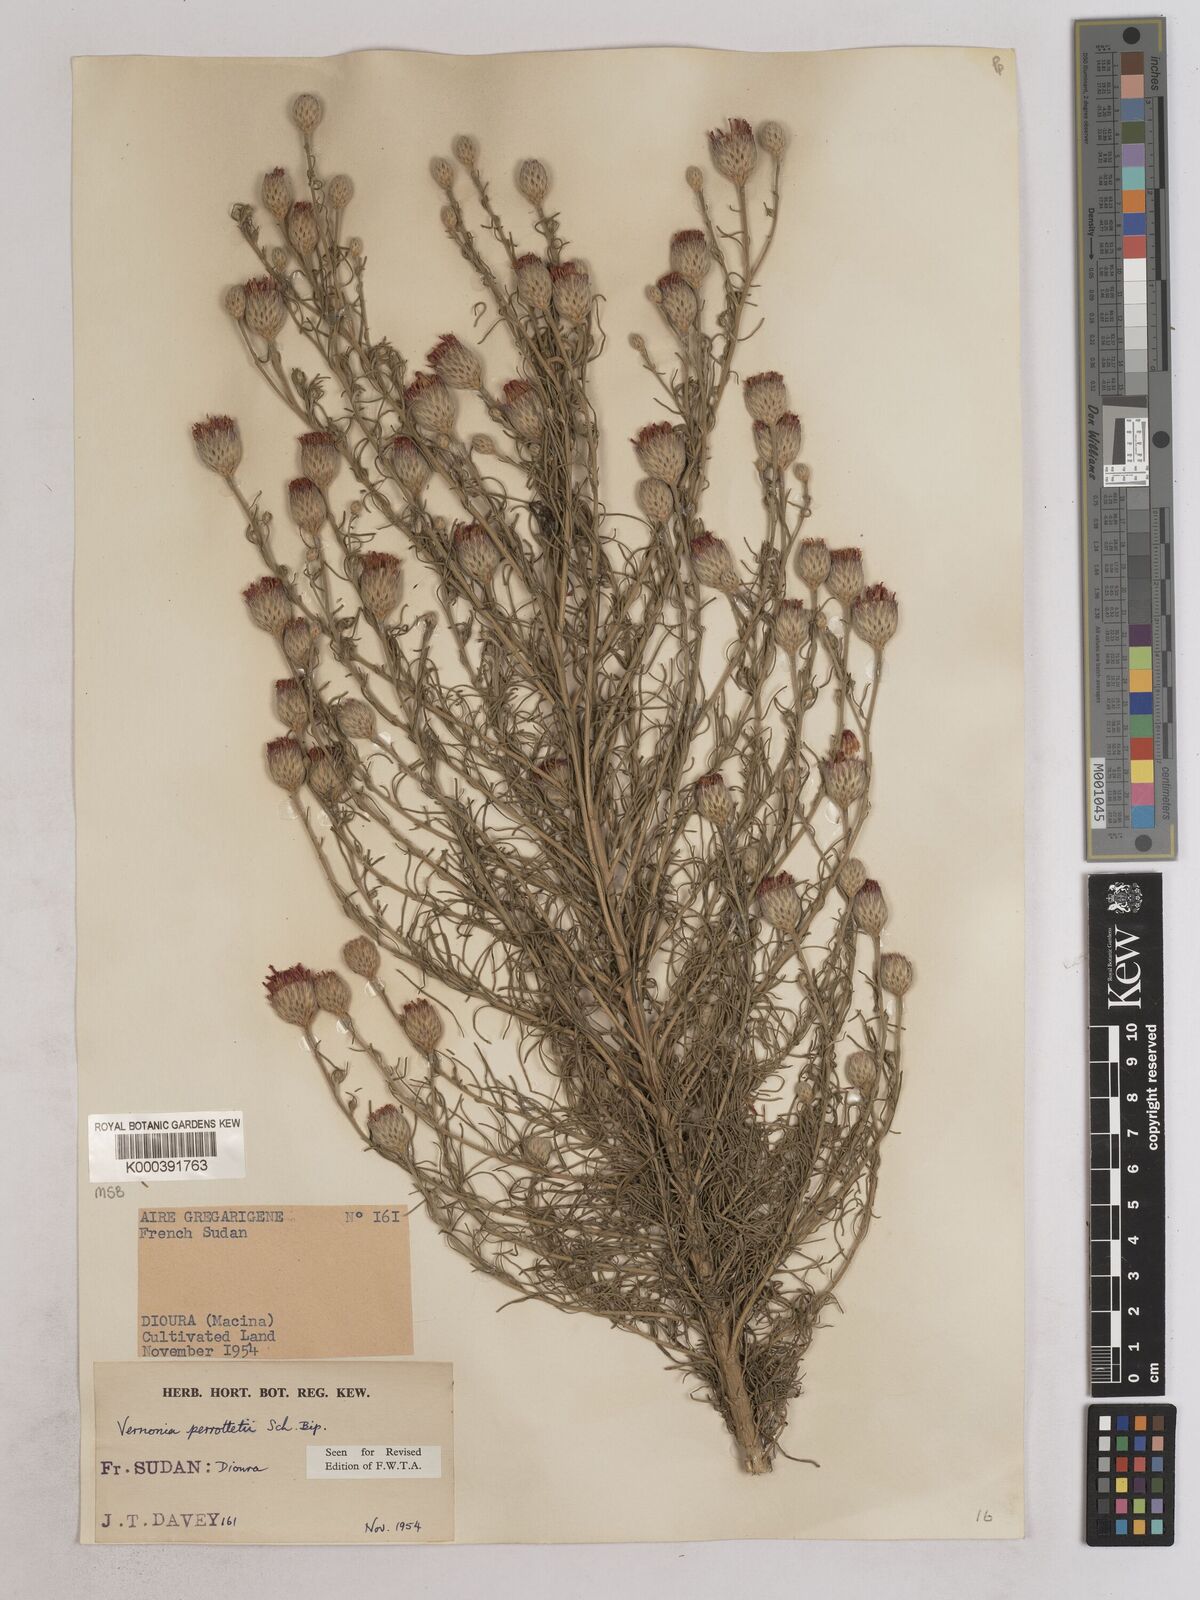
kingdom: Plantae
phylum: Tracheophyta
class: Magnoliopsida
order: Asterales
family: Asteraceae
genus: Crystallopollen
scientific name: Crystallopollen serratuloides
